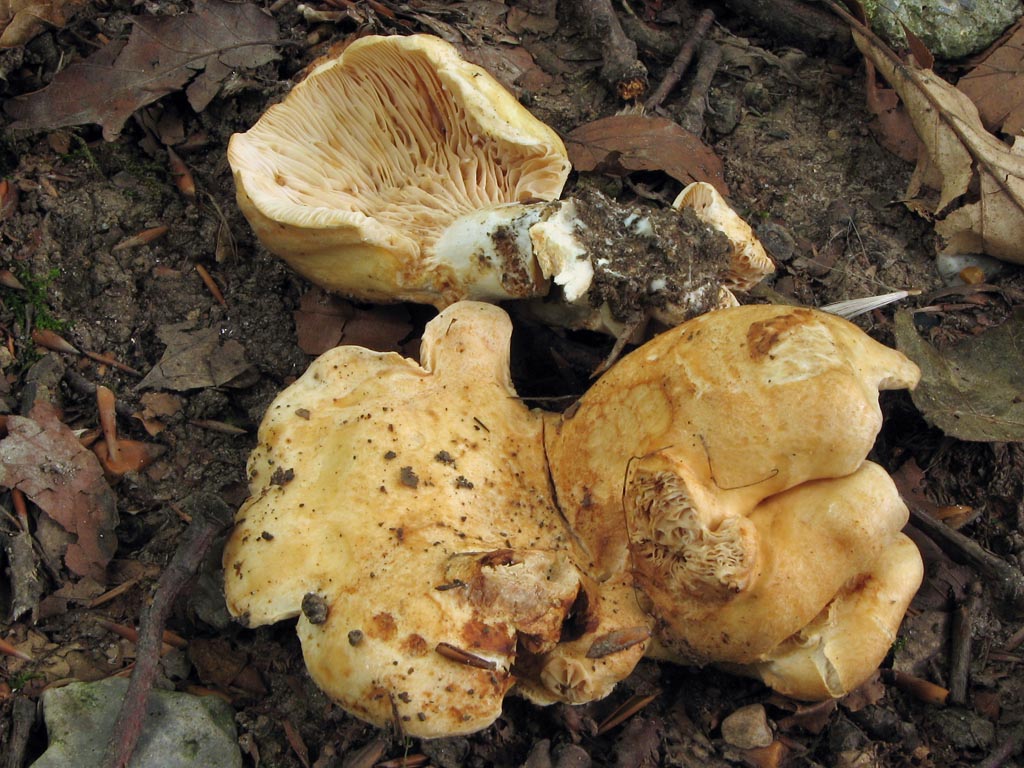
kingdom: Fungi
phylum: Basidiomycota
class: Agaricomycetes
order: Russulales
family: Russulaceae
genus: Lactarius
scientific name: Lactarius acerrimus
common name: brændende mælkehat
